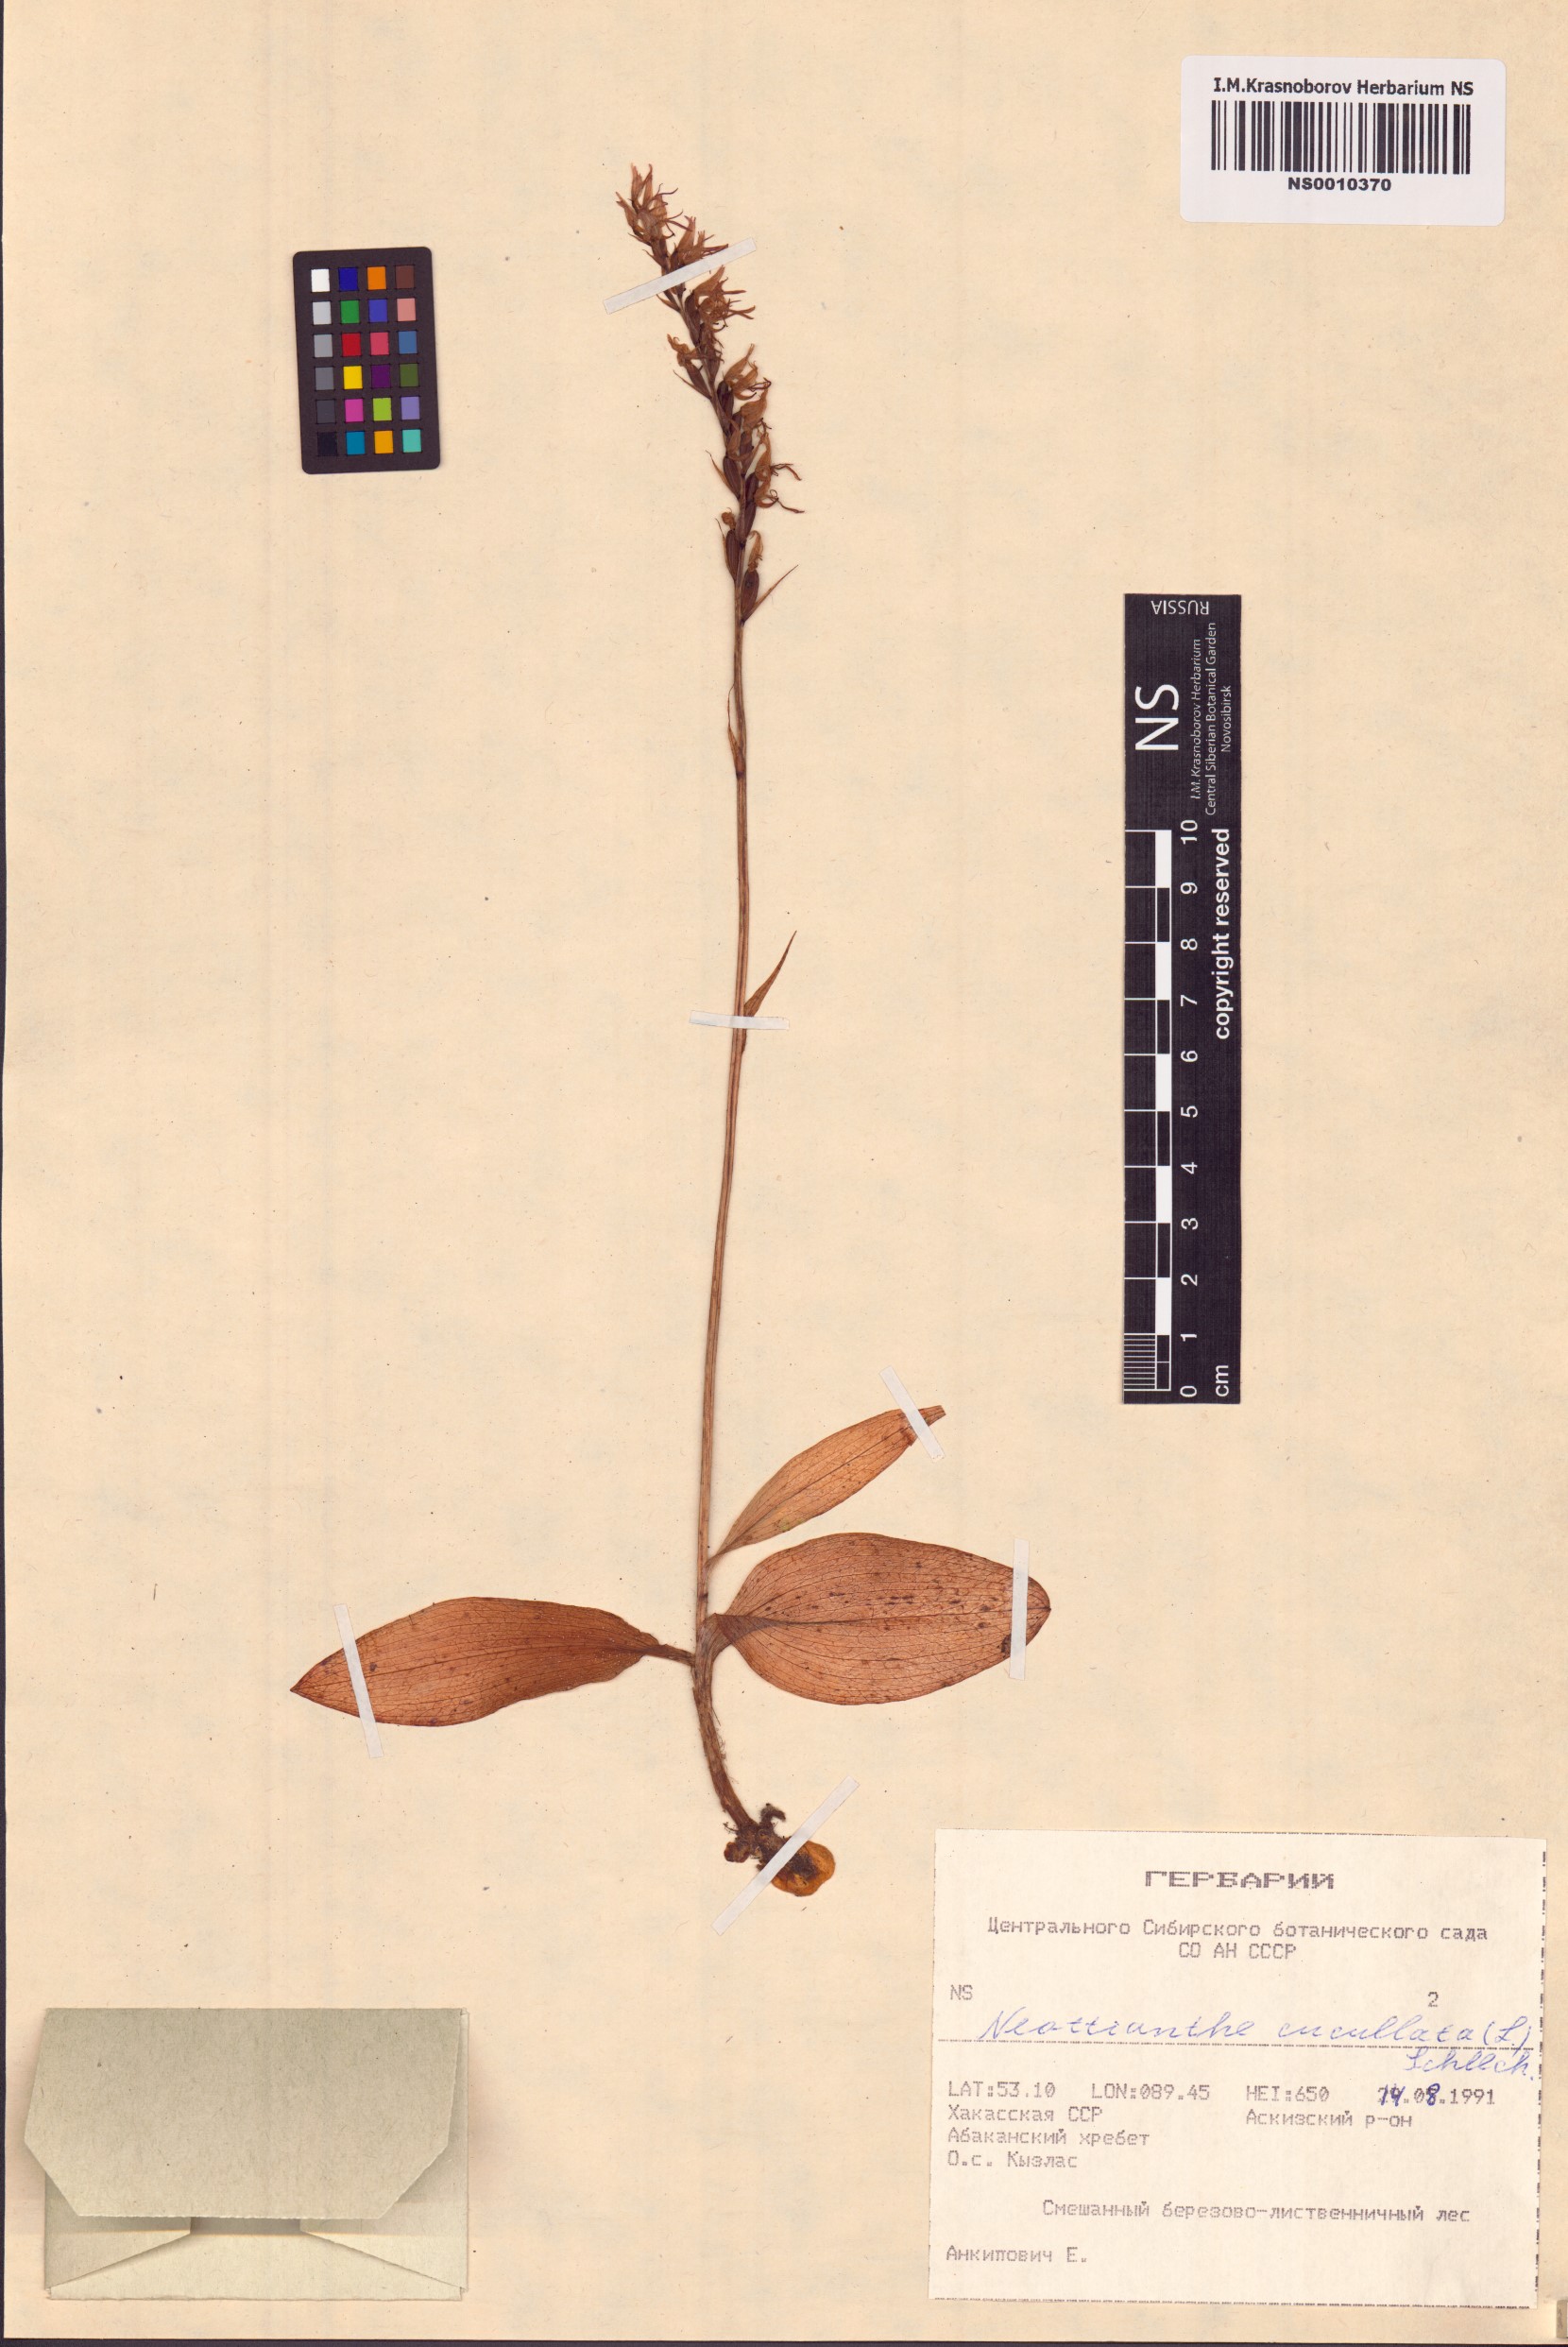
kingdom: Plantae
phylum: Tracheophyta
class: Liliopsida
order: Asparagales
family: Orchidaceae
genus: Hemipilia
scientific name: Hemipilia cucullata
